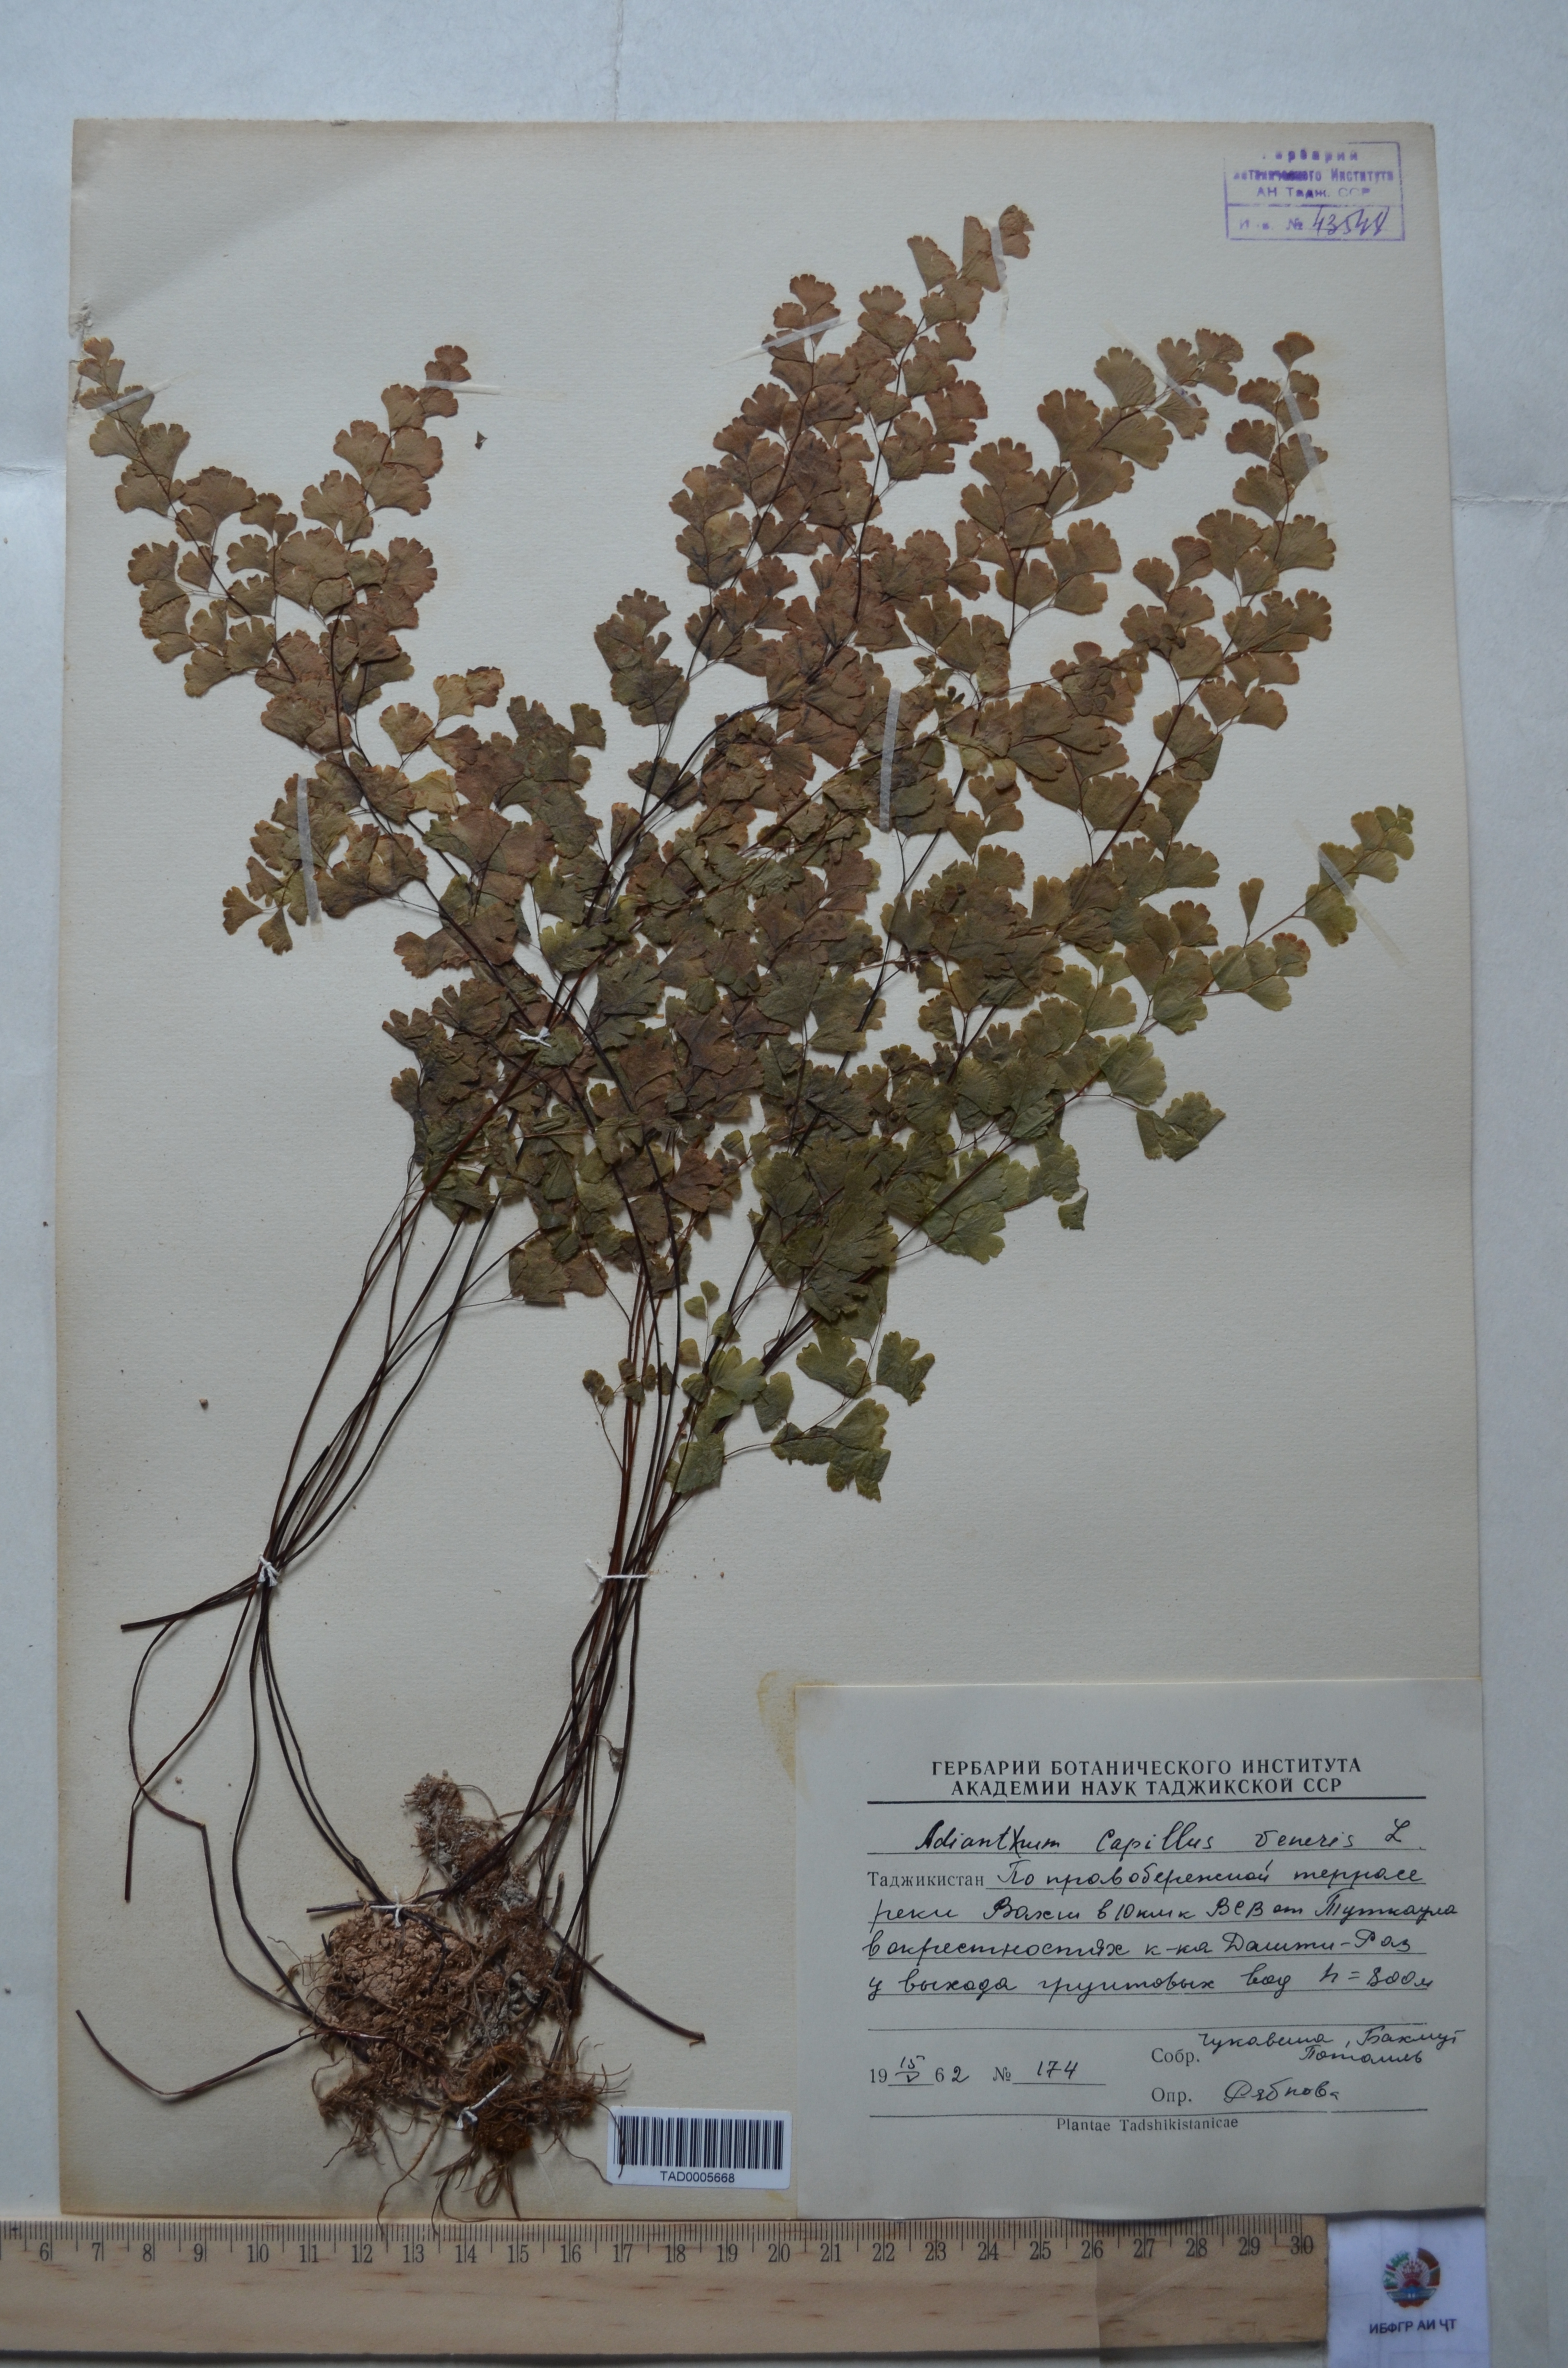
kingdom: Plantae
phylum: Tracheophyta
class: Polypodiopsida
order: Polypodiales
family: Pteridaceae
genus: Adiantum
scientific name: Adiantum capillus-veneris
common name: Maidenhair fern
